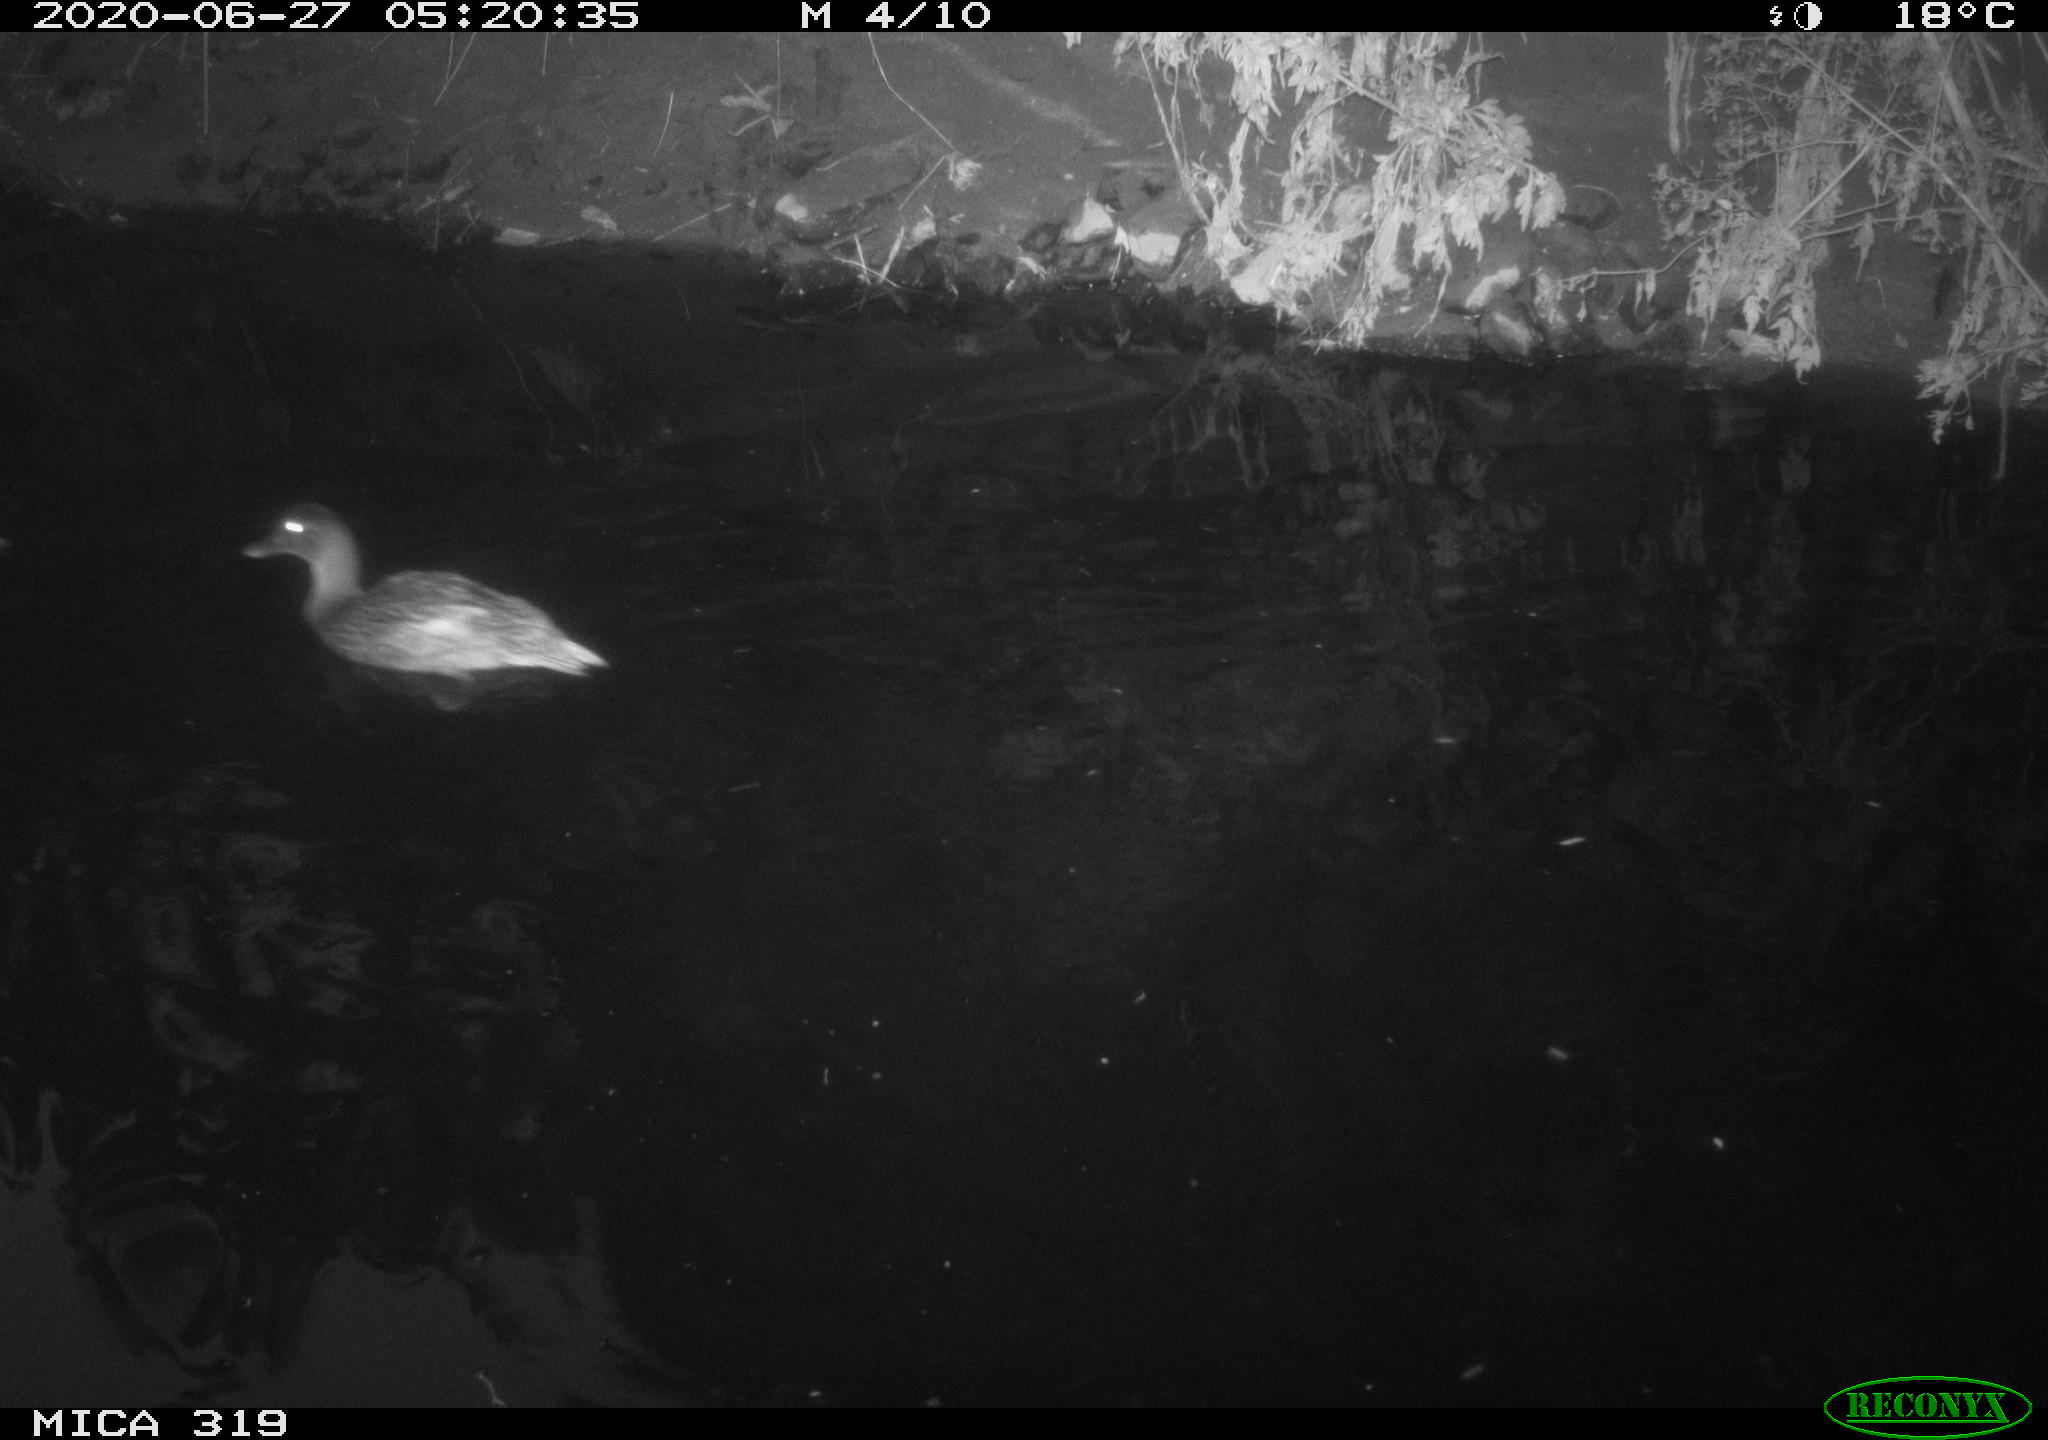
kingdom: Animalia
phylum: Chordata
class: Aves
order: Anseriformes
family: Anatidae
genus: Anas
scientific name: Anas platyrhynchos
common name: Mallard
